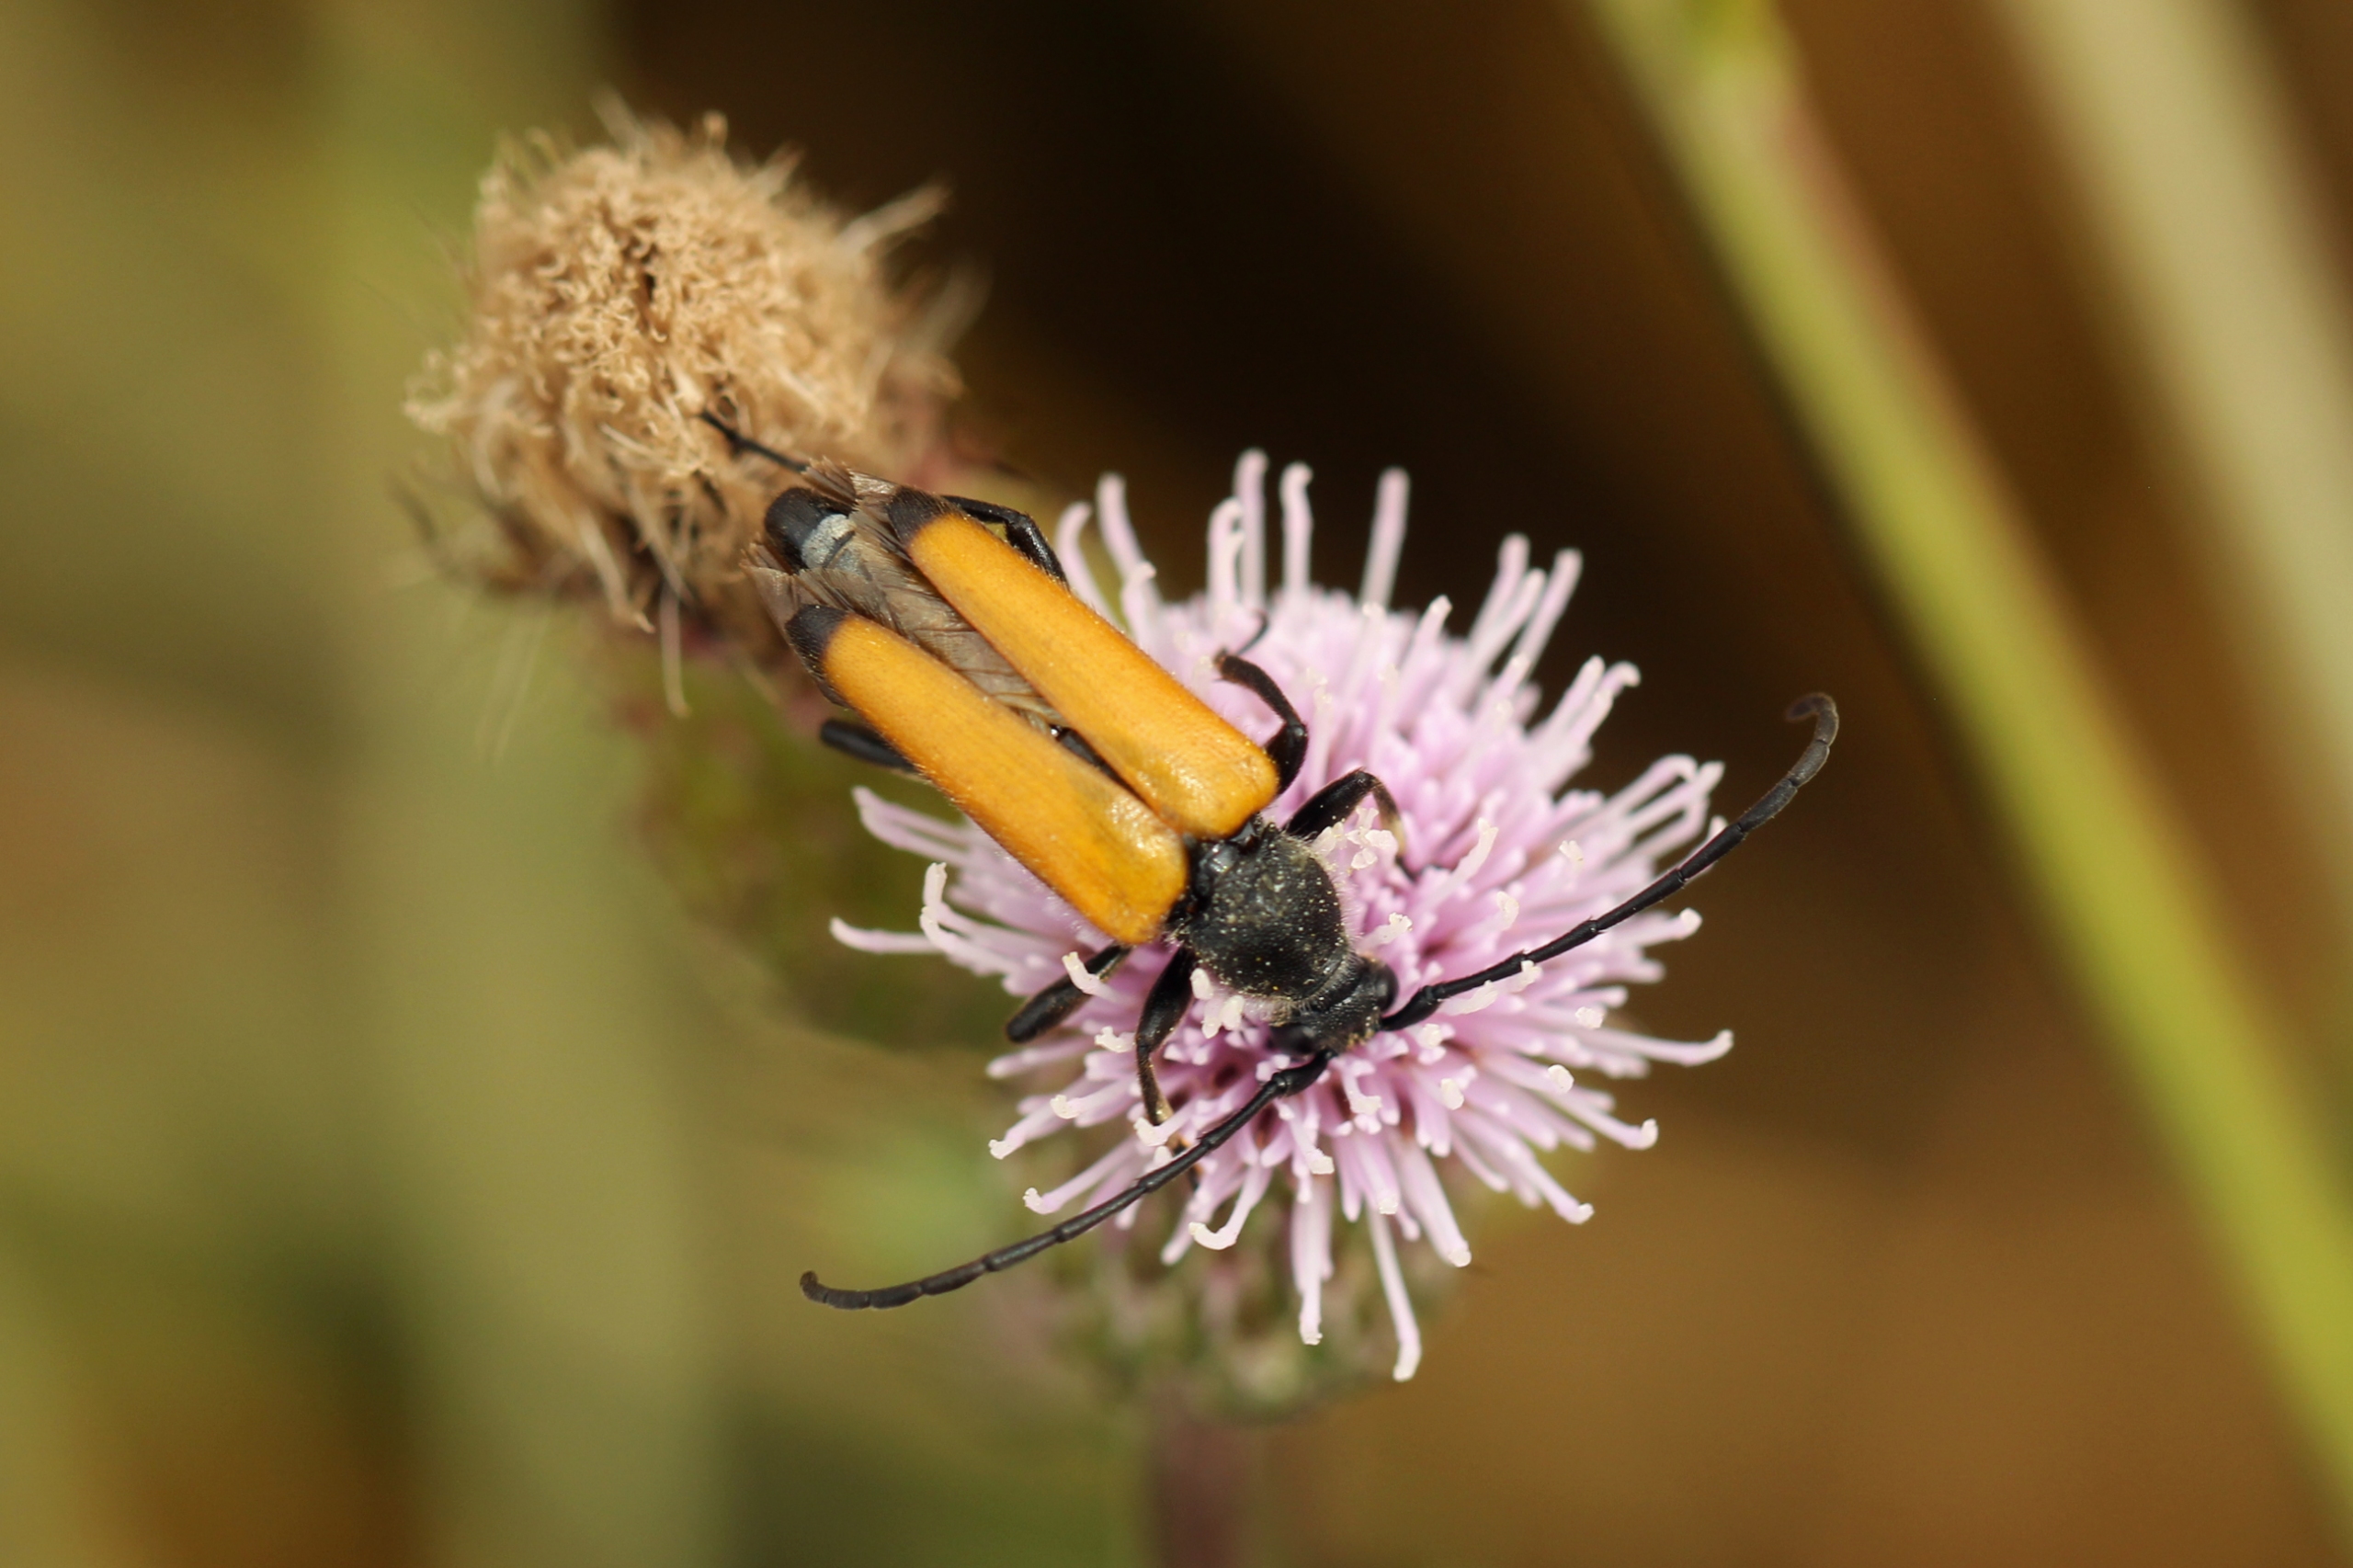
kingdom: Animalia
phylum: Arthropoda
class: Insecta
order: Coleoptera
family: Cerambycidae
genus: Paracorymbia
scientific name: Paracorymbia fulva
